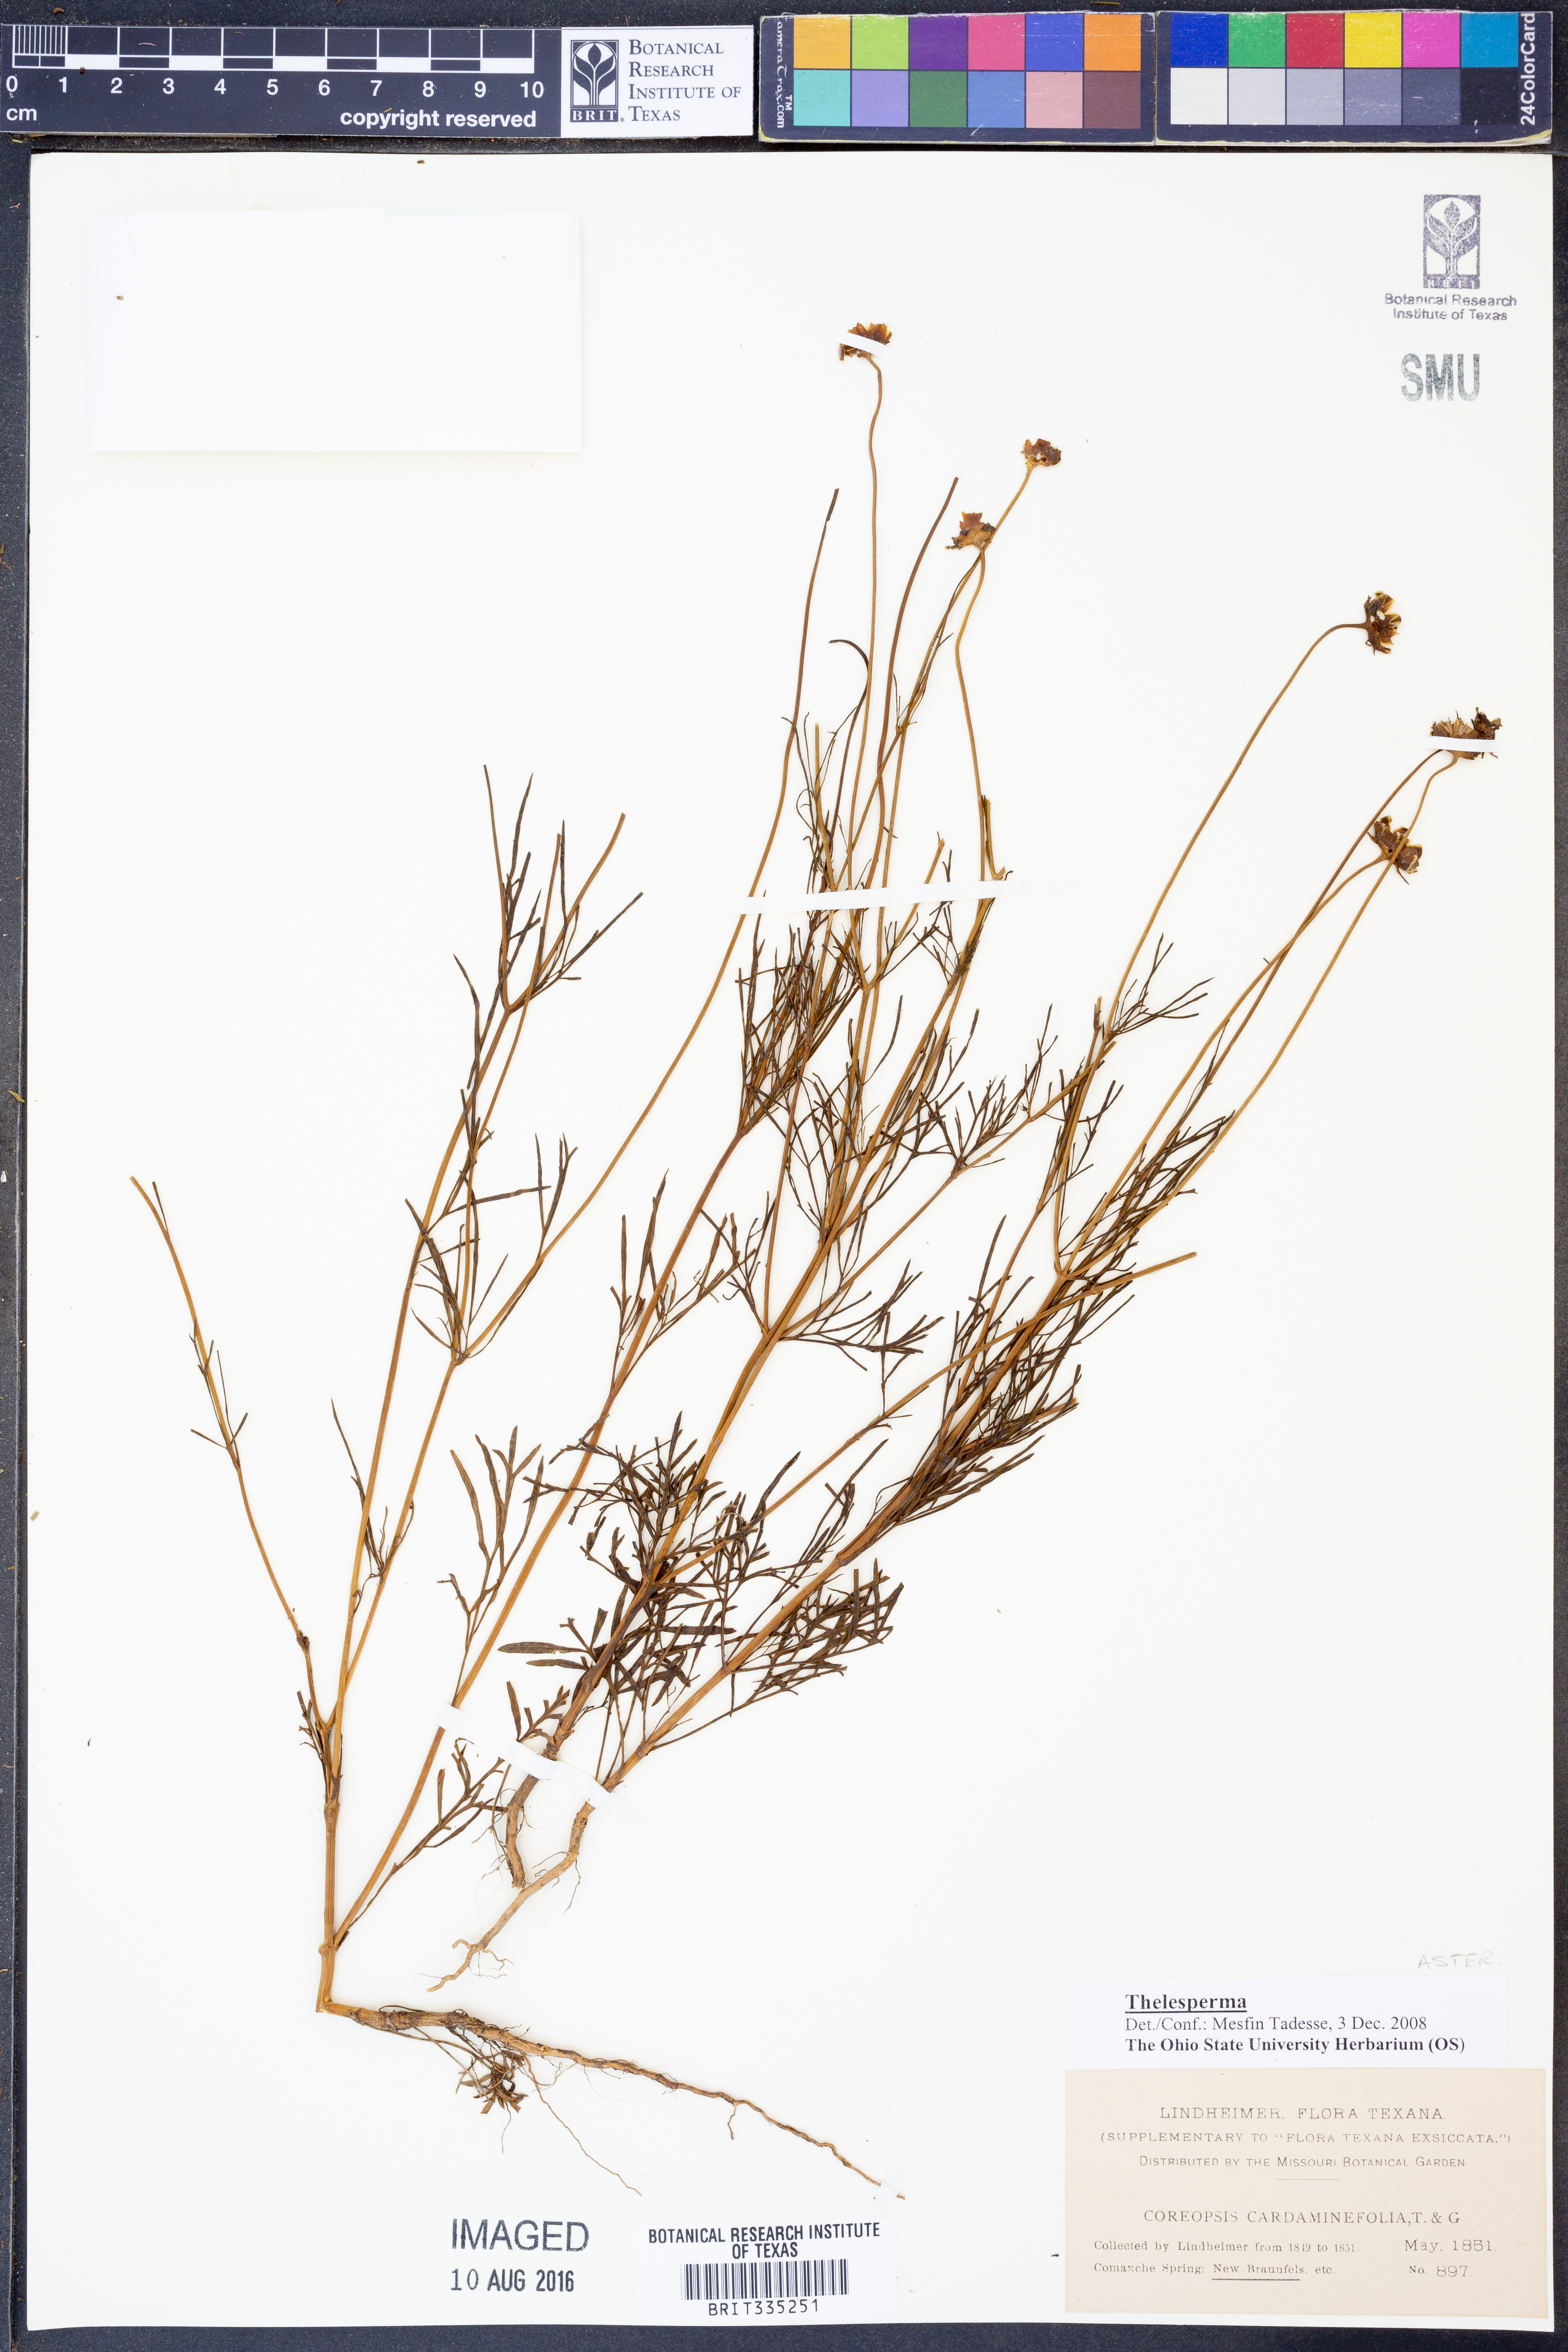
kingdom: Plantae
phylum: Tracheophyta
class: Magnoliopsida
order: Asterales
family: Asteraceae
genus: Thelesperma
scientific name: Thelesperma
